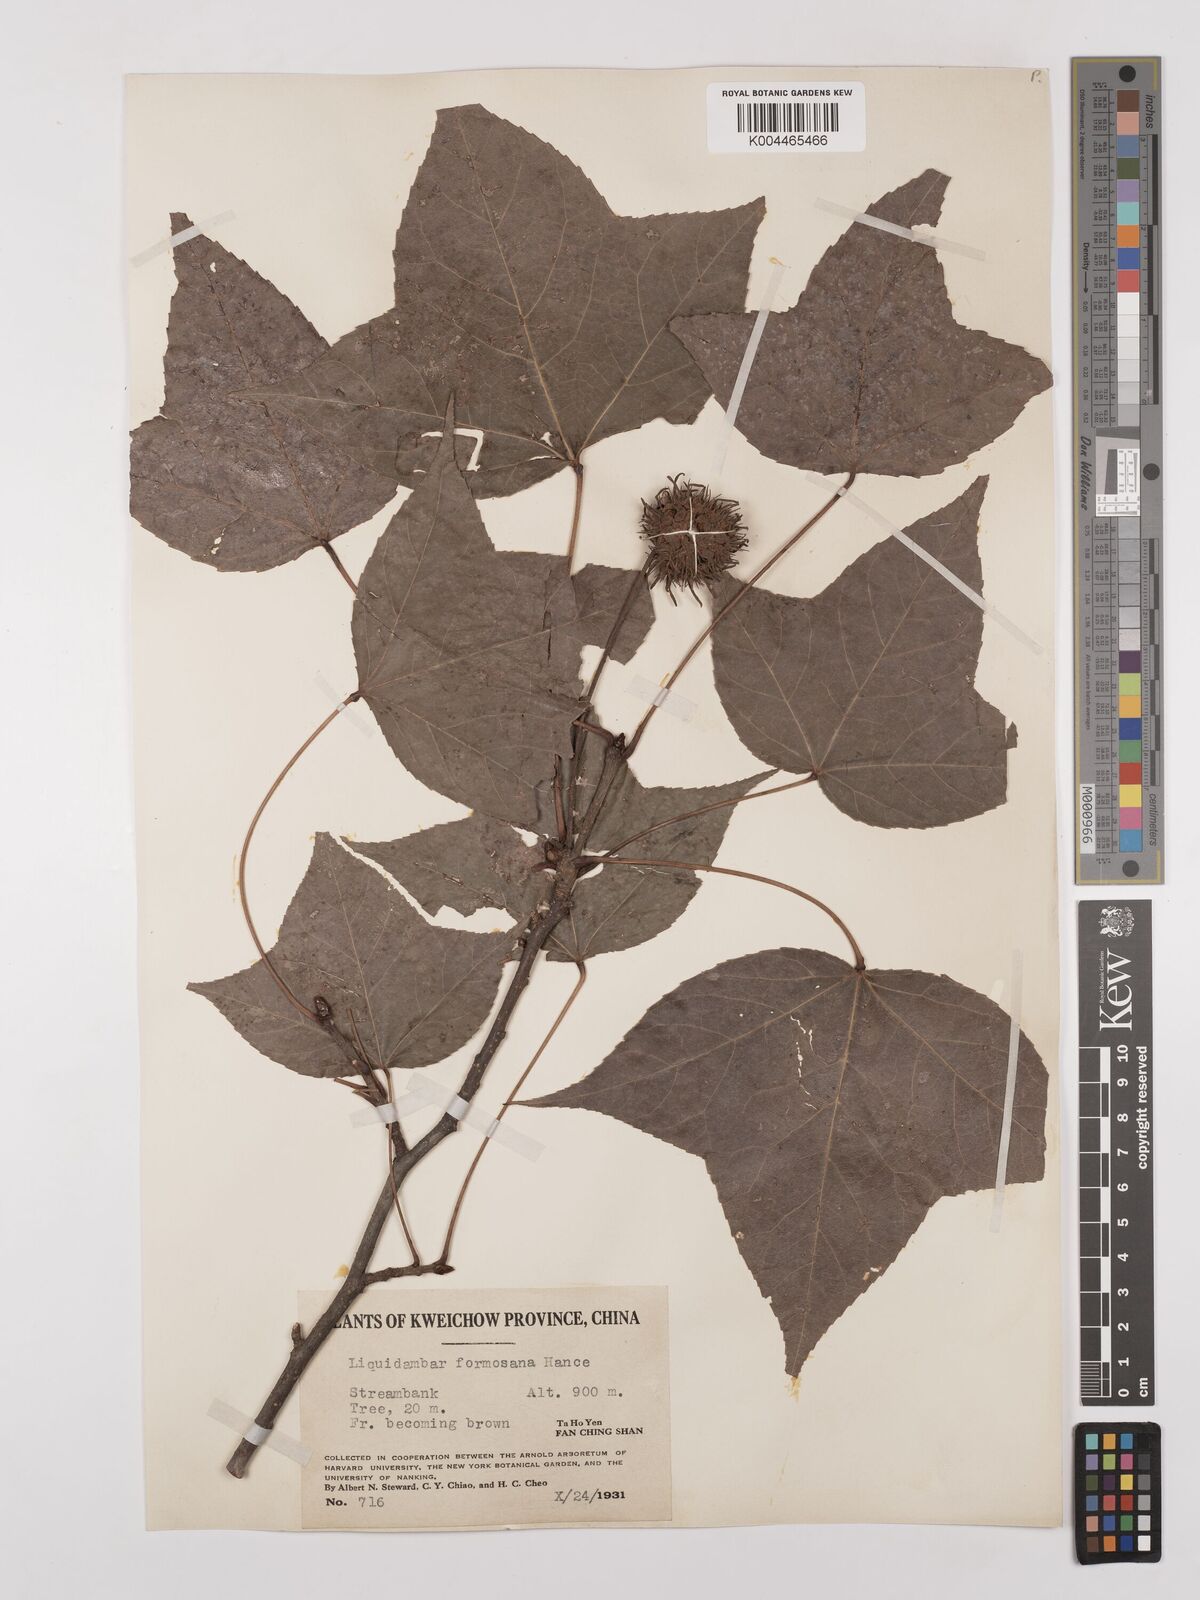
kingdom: Plantae
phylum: Tracheophyta
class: Magnoliopsida
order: Saxifragales
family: Altingiaceae
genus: Liquidambar
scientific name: Liquidambar formosana
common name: Chinese sweet gum
